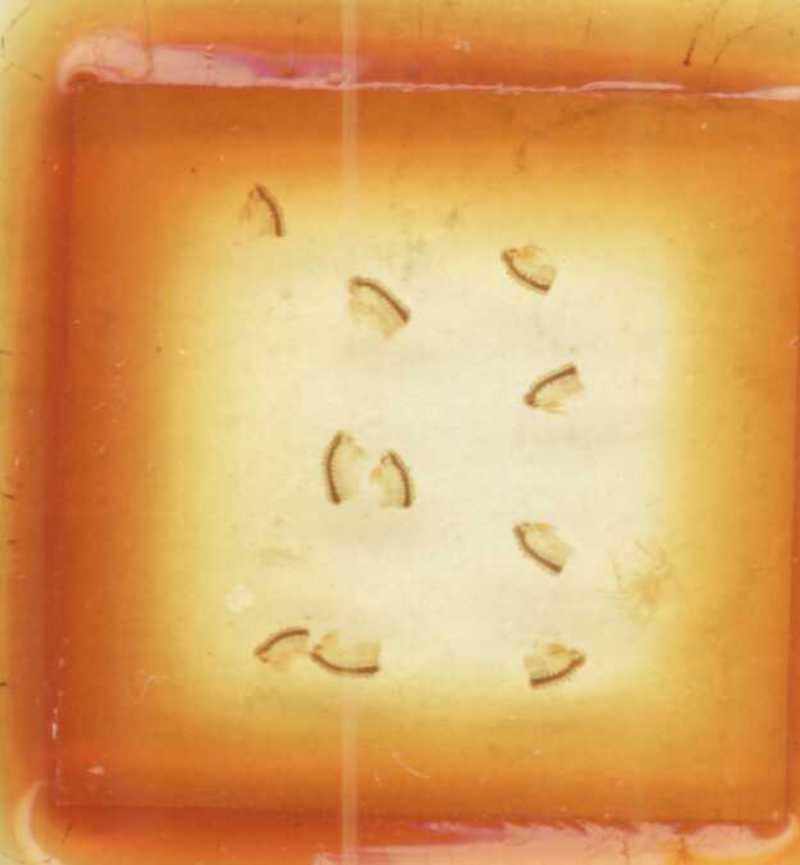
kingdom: Animalia
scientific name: Animalia
